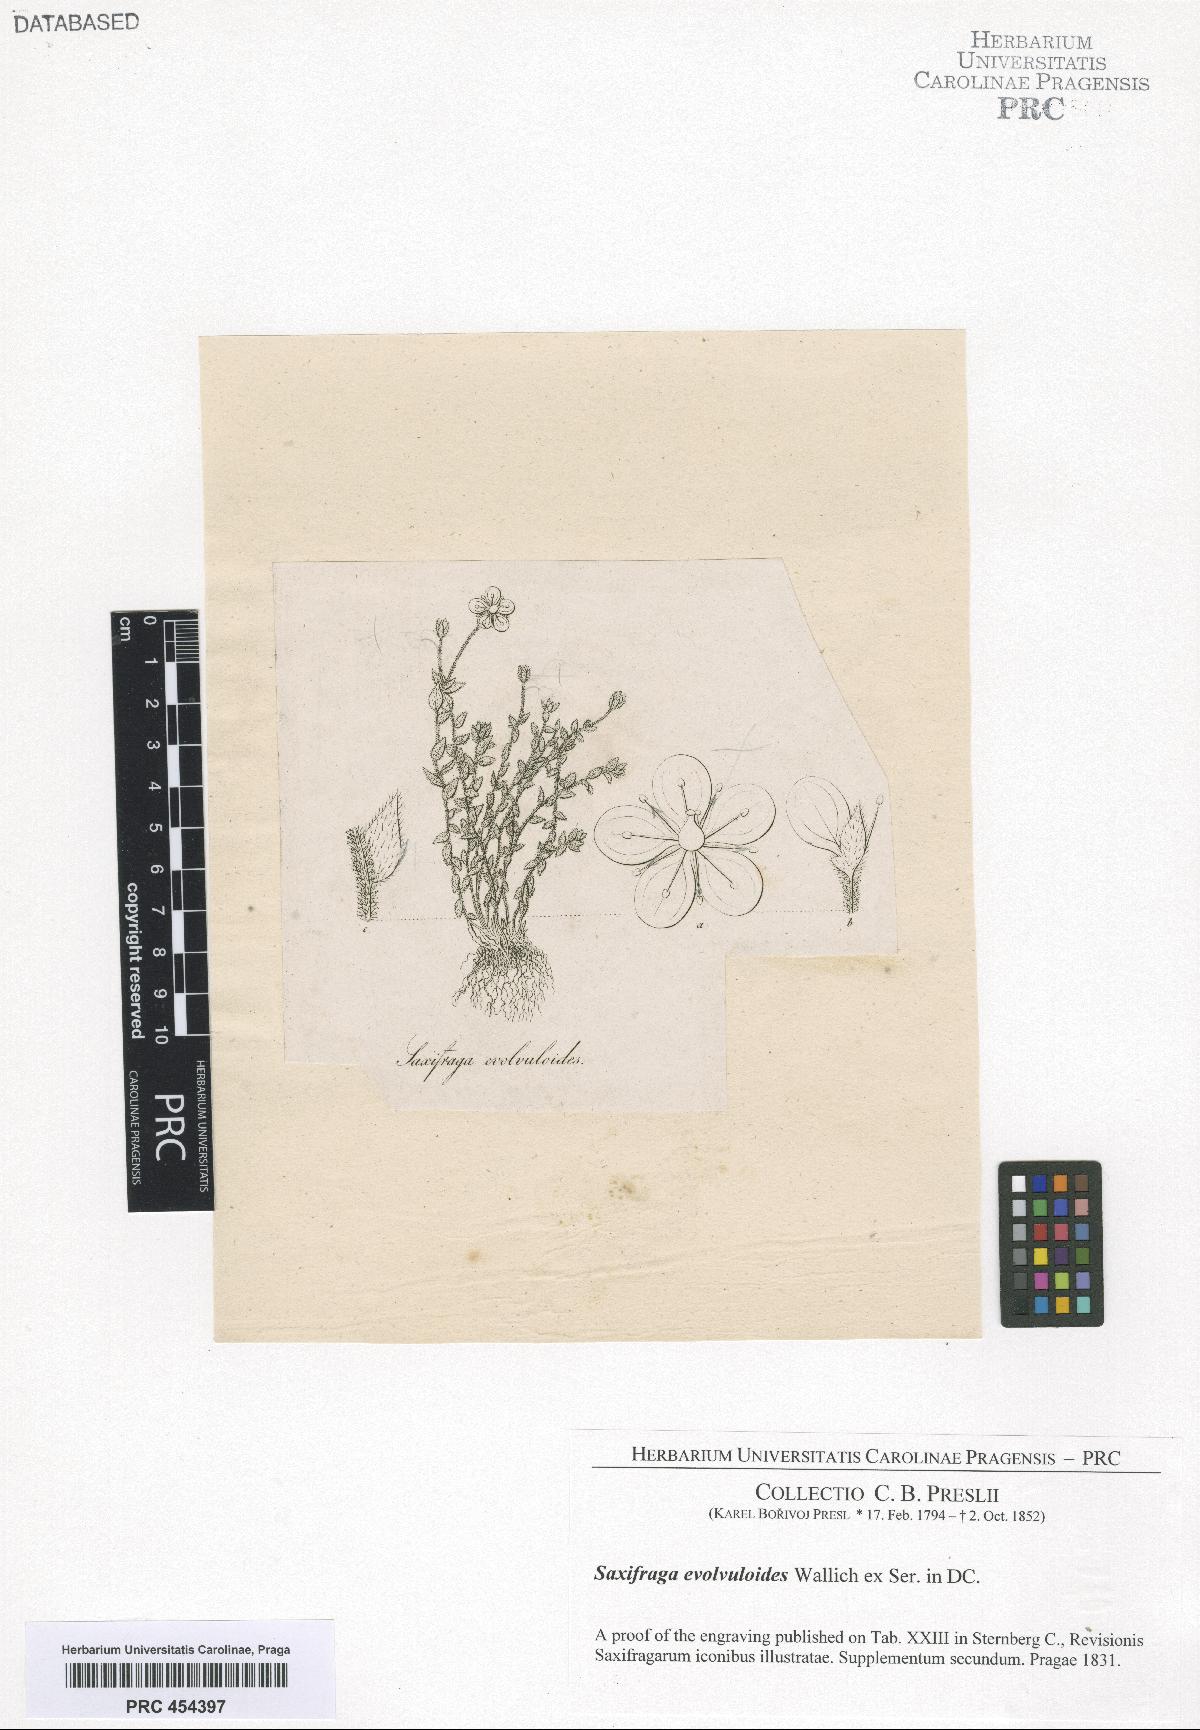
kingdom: Plantae
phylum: Tracheophyta
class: Magnoliopsida
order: Saxifragales
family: Saxifragaceae
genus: Saxifraga
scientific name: Saxifraga hispidula
